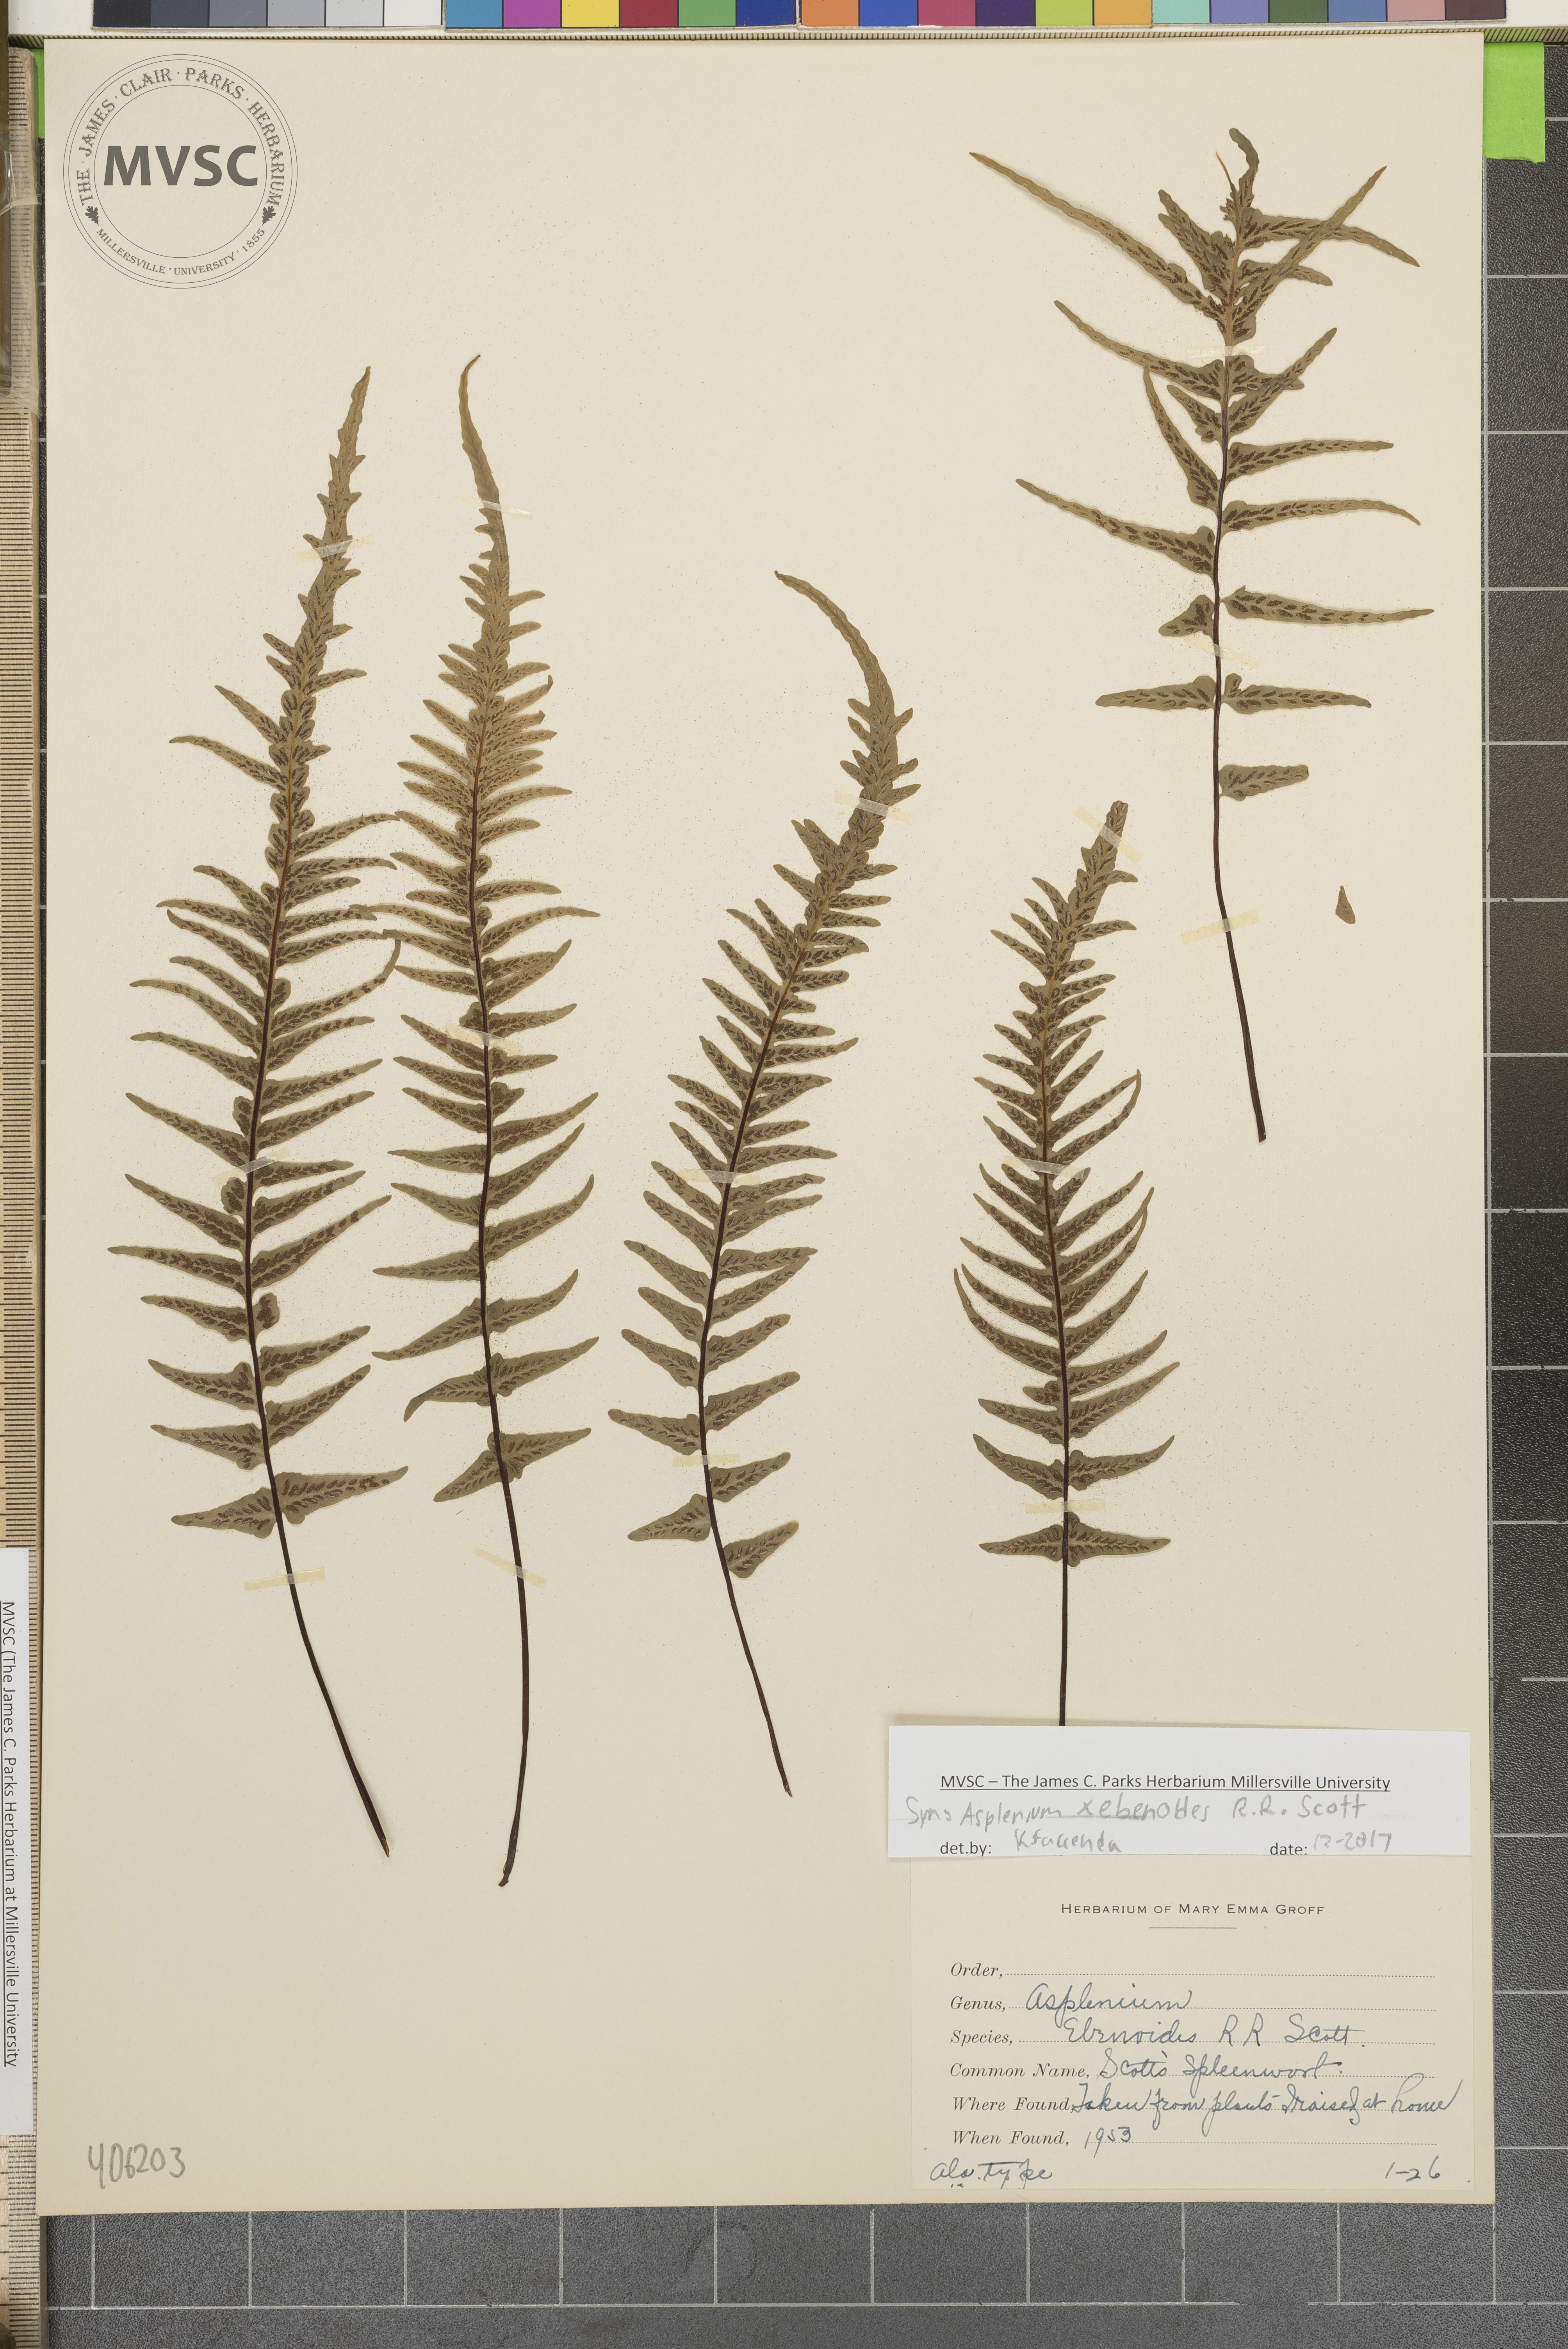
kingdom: Plantae
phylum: Tracheophyta
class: Polypodiopsida
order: Polypodiales
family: Aspleniaceae
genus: Asplenium
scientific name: Asplenium ebenoides
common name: Dragon-tail fern
